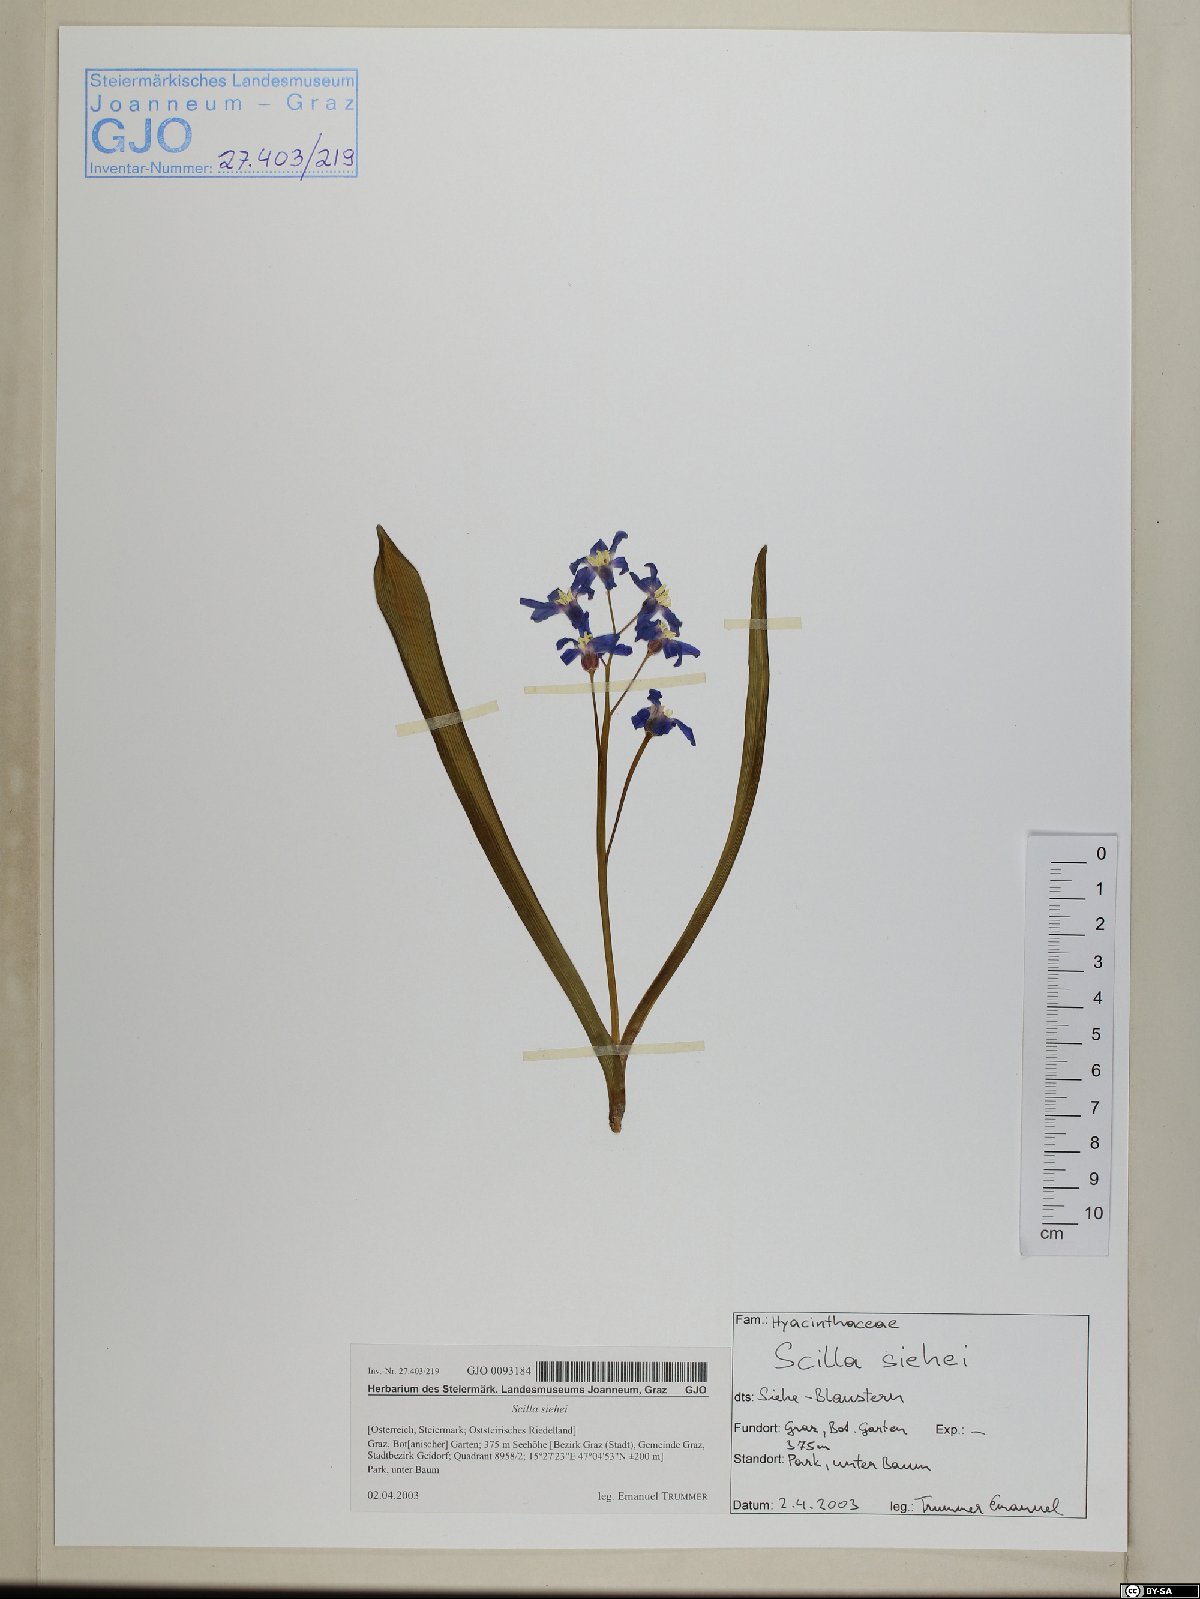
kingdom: Plantae
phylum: Tracheophyta
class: Liliopsida
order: Asparagales
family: Asparagaceae
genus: Scilla
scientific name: Scilla forbesii
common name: Glory-of-the-snow
